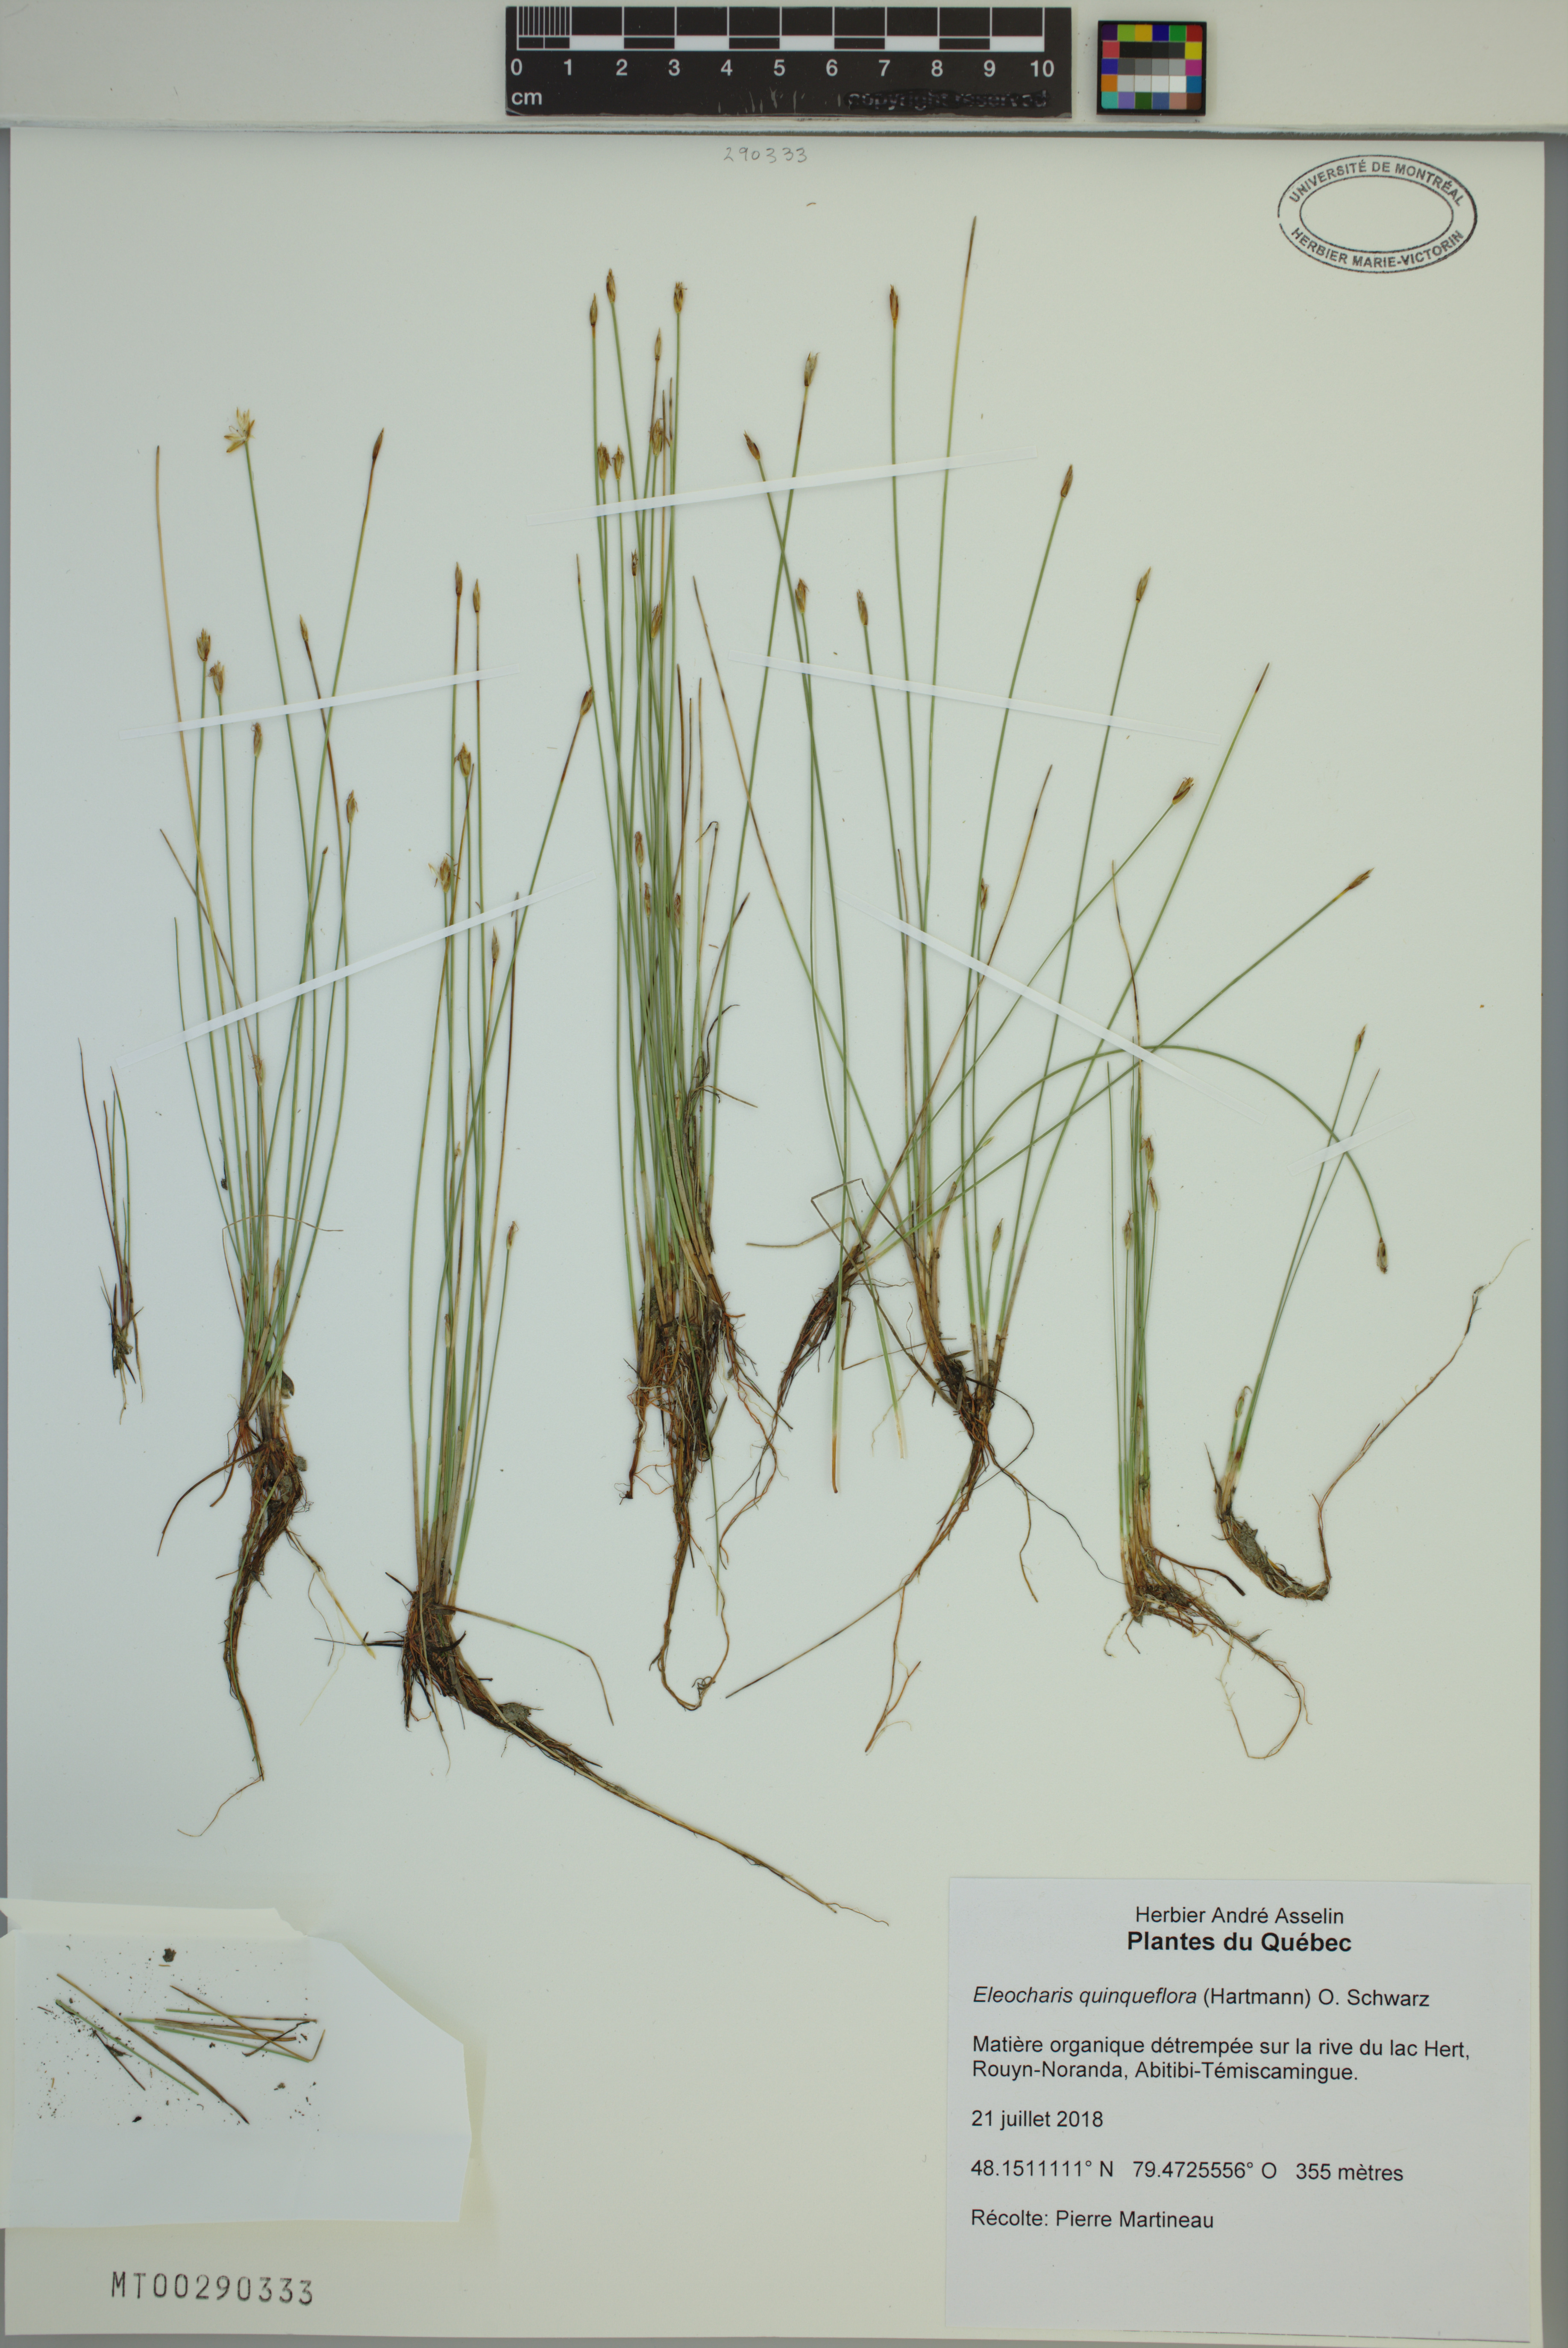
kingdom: Plantae
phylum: Tracheophyta
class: Liliopsida
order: Poales
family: Cyperaceae
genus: Eleocharis
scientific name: Eleocharis quinqueflora
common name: Few-flowered spike-rush
